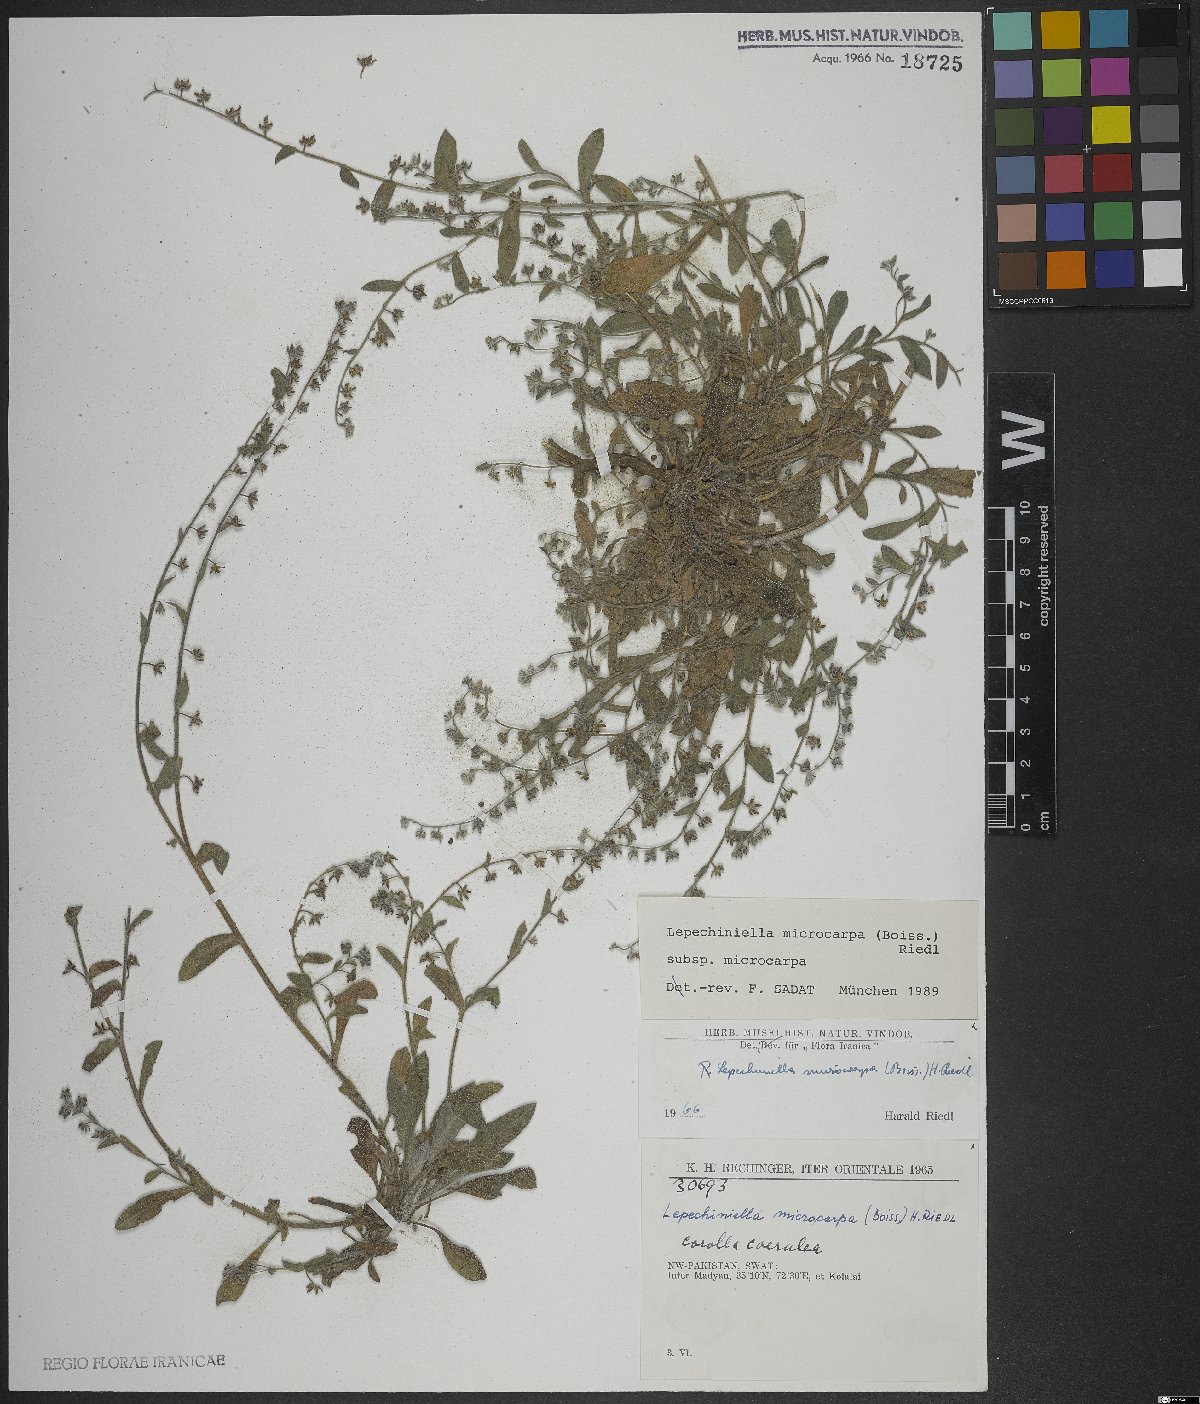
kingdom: Plantae
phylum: Tracheophyta
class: Magnoliopsida
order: Boraginales
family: Boraginaceae
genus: Lepechiniella
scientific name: Lepechiniella microcarpa
